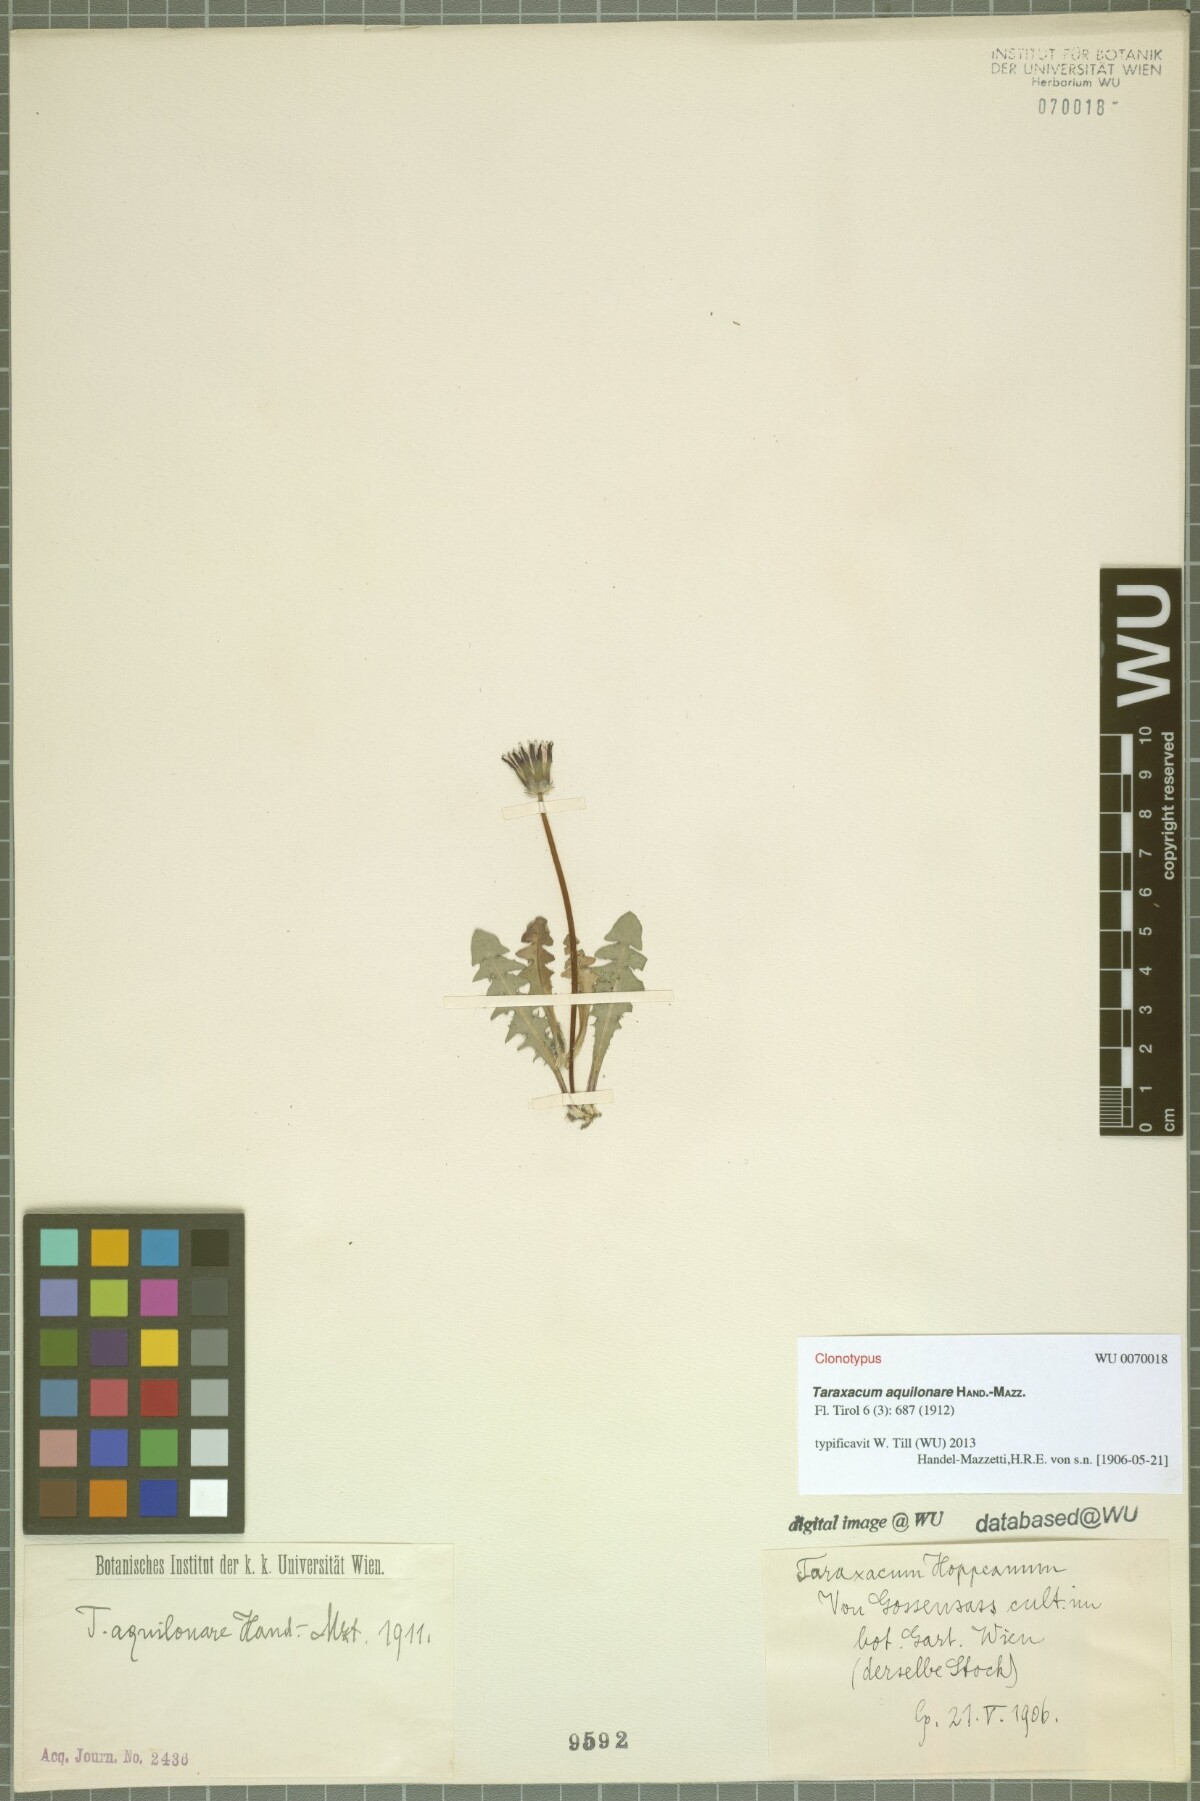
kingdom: Plantae
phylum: Tracheophyta
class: Magnoliopsida
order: Asterales
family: Asteraceae
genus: Taraxacum
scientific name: Taraxacum aquilonare
